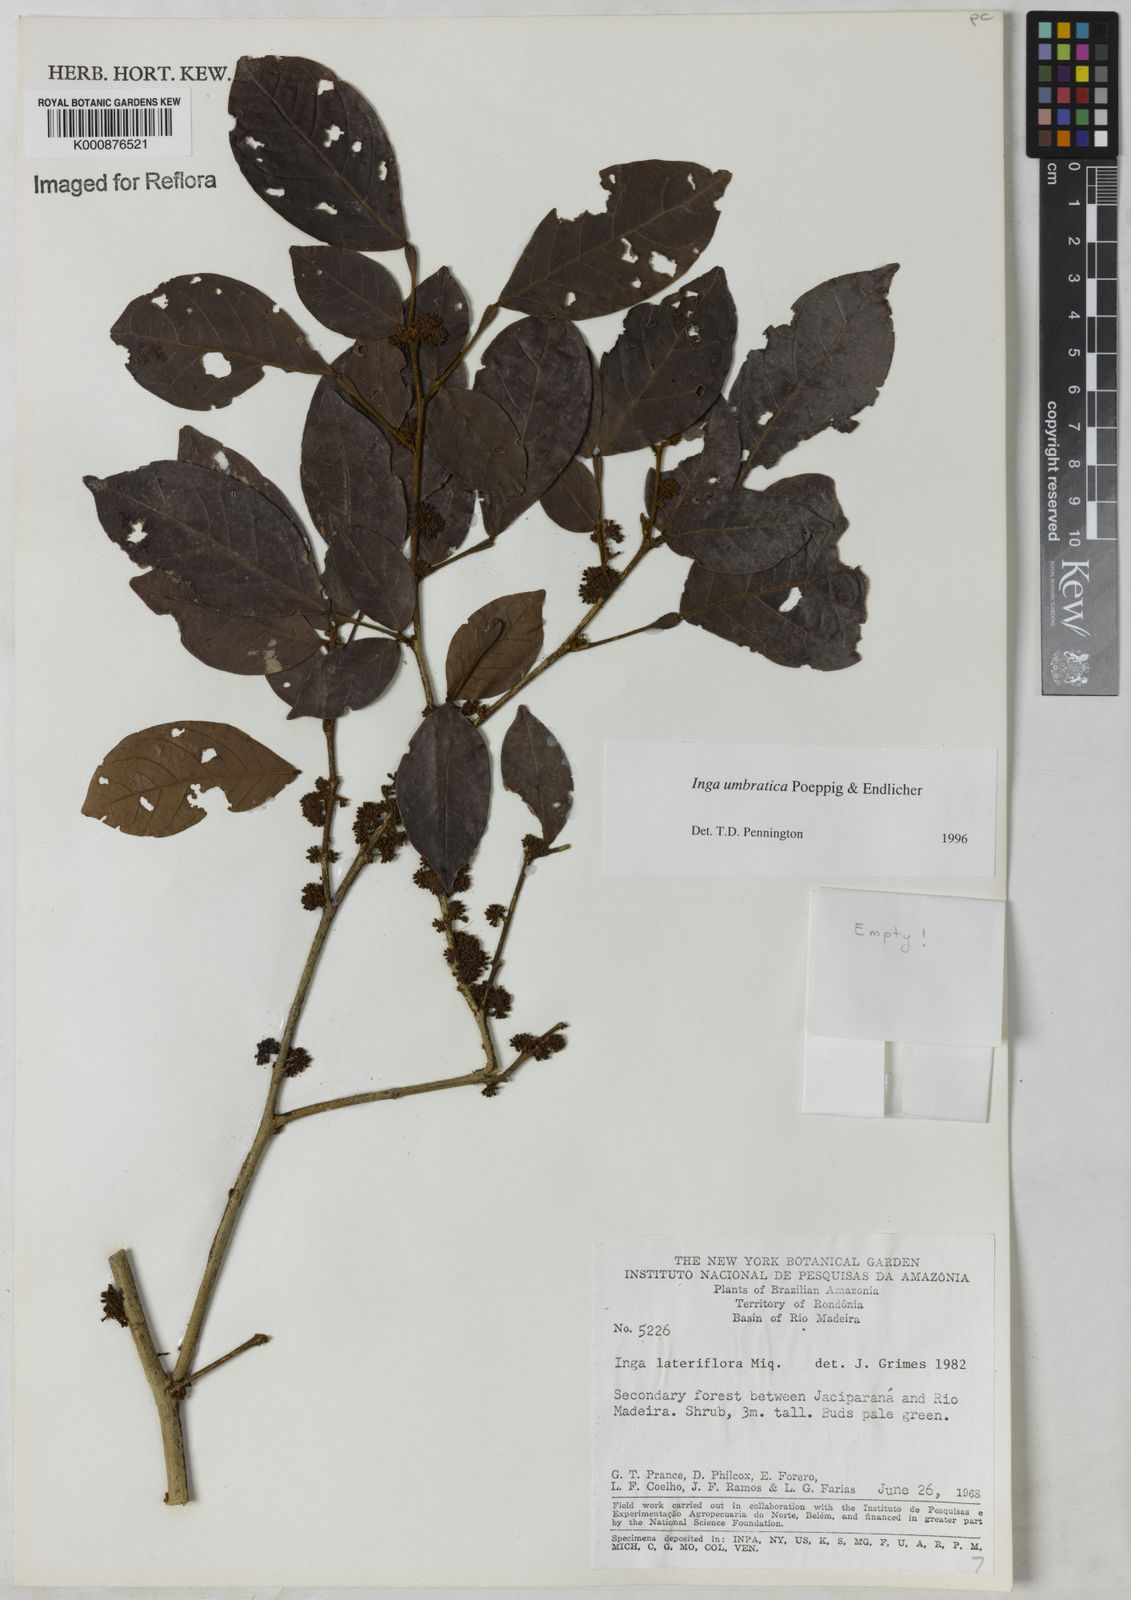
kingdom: Plantae
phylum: Tracheophyta
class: Magnoliopsida
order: Fabales
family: Fabaceae
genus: Inga
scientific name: Inga umbratica
